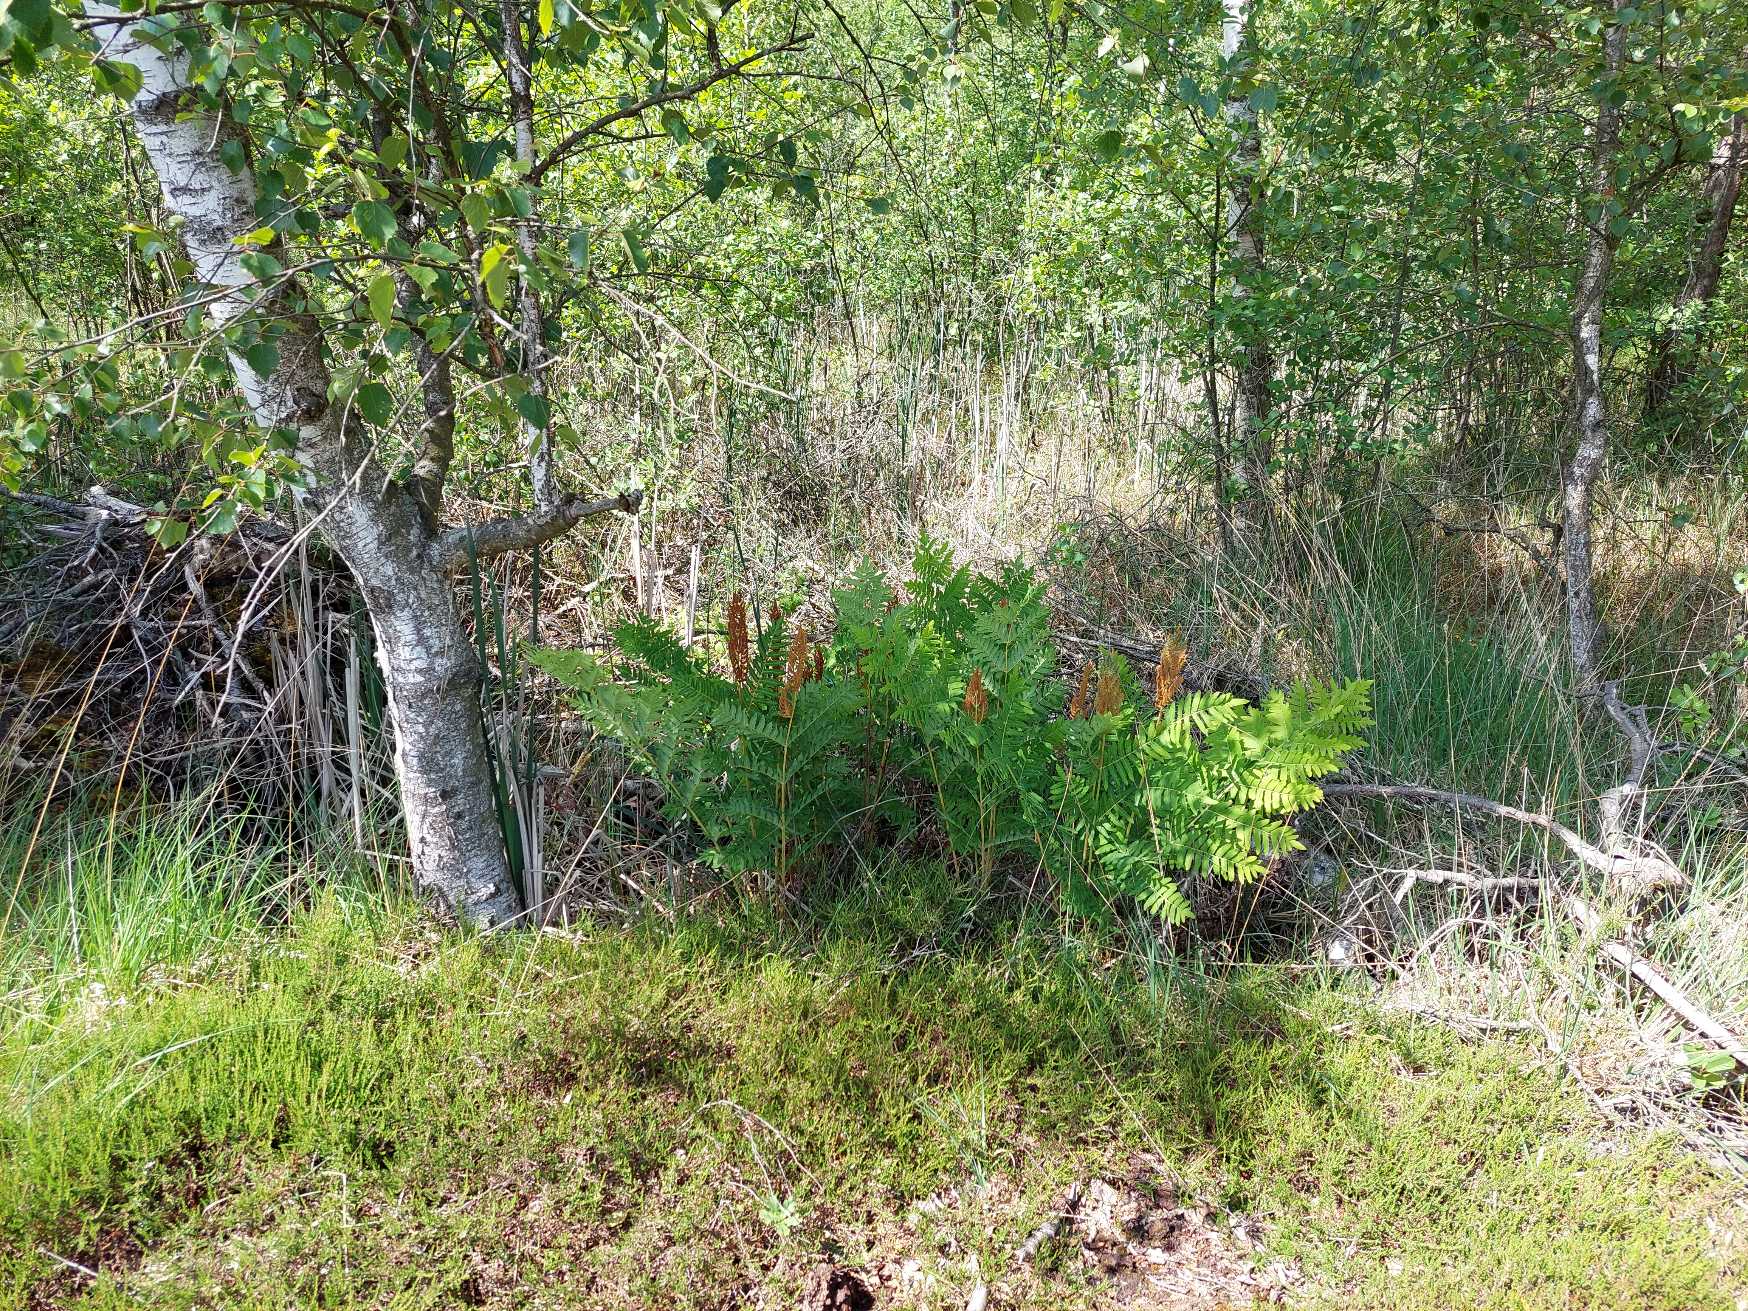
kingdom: Plantae
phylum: Tracheophyta
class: Polypodiopsida
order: Osmundales
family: Osmundaceae
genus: Osmunda
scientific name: Osmunda regalis
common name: Kongebregne
